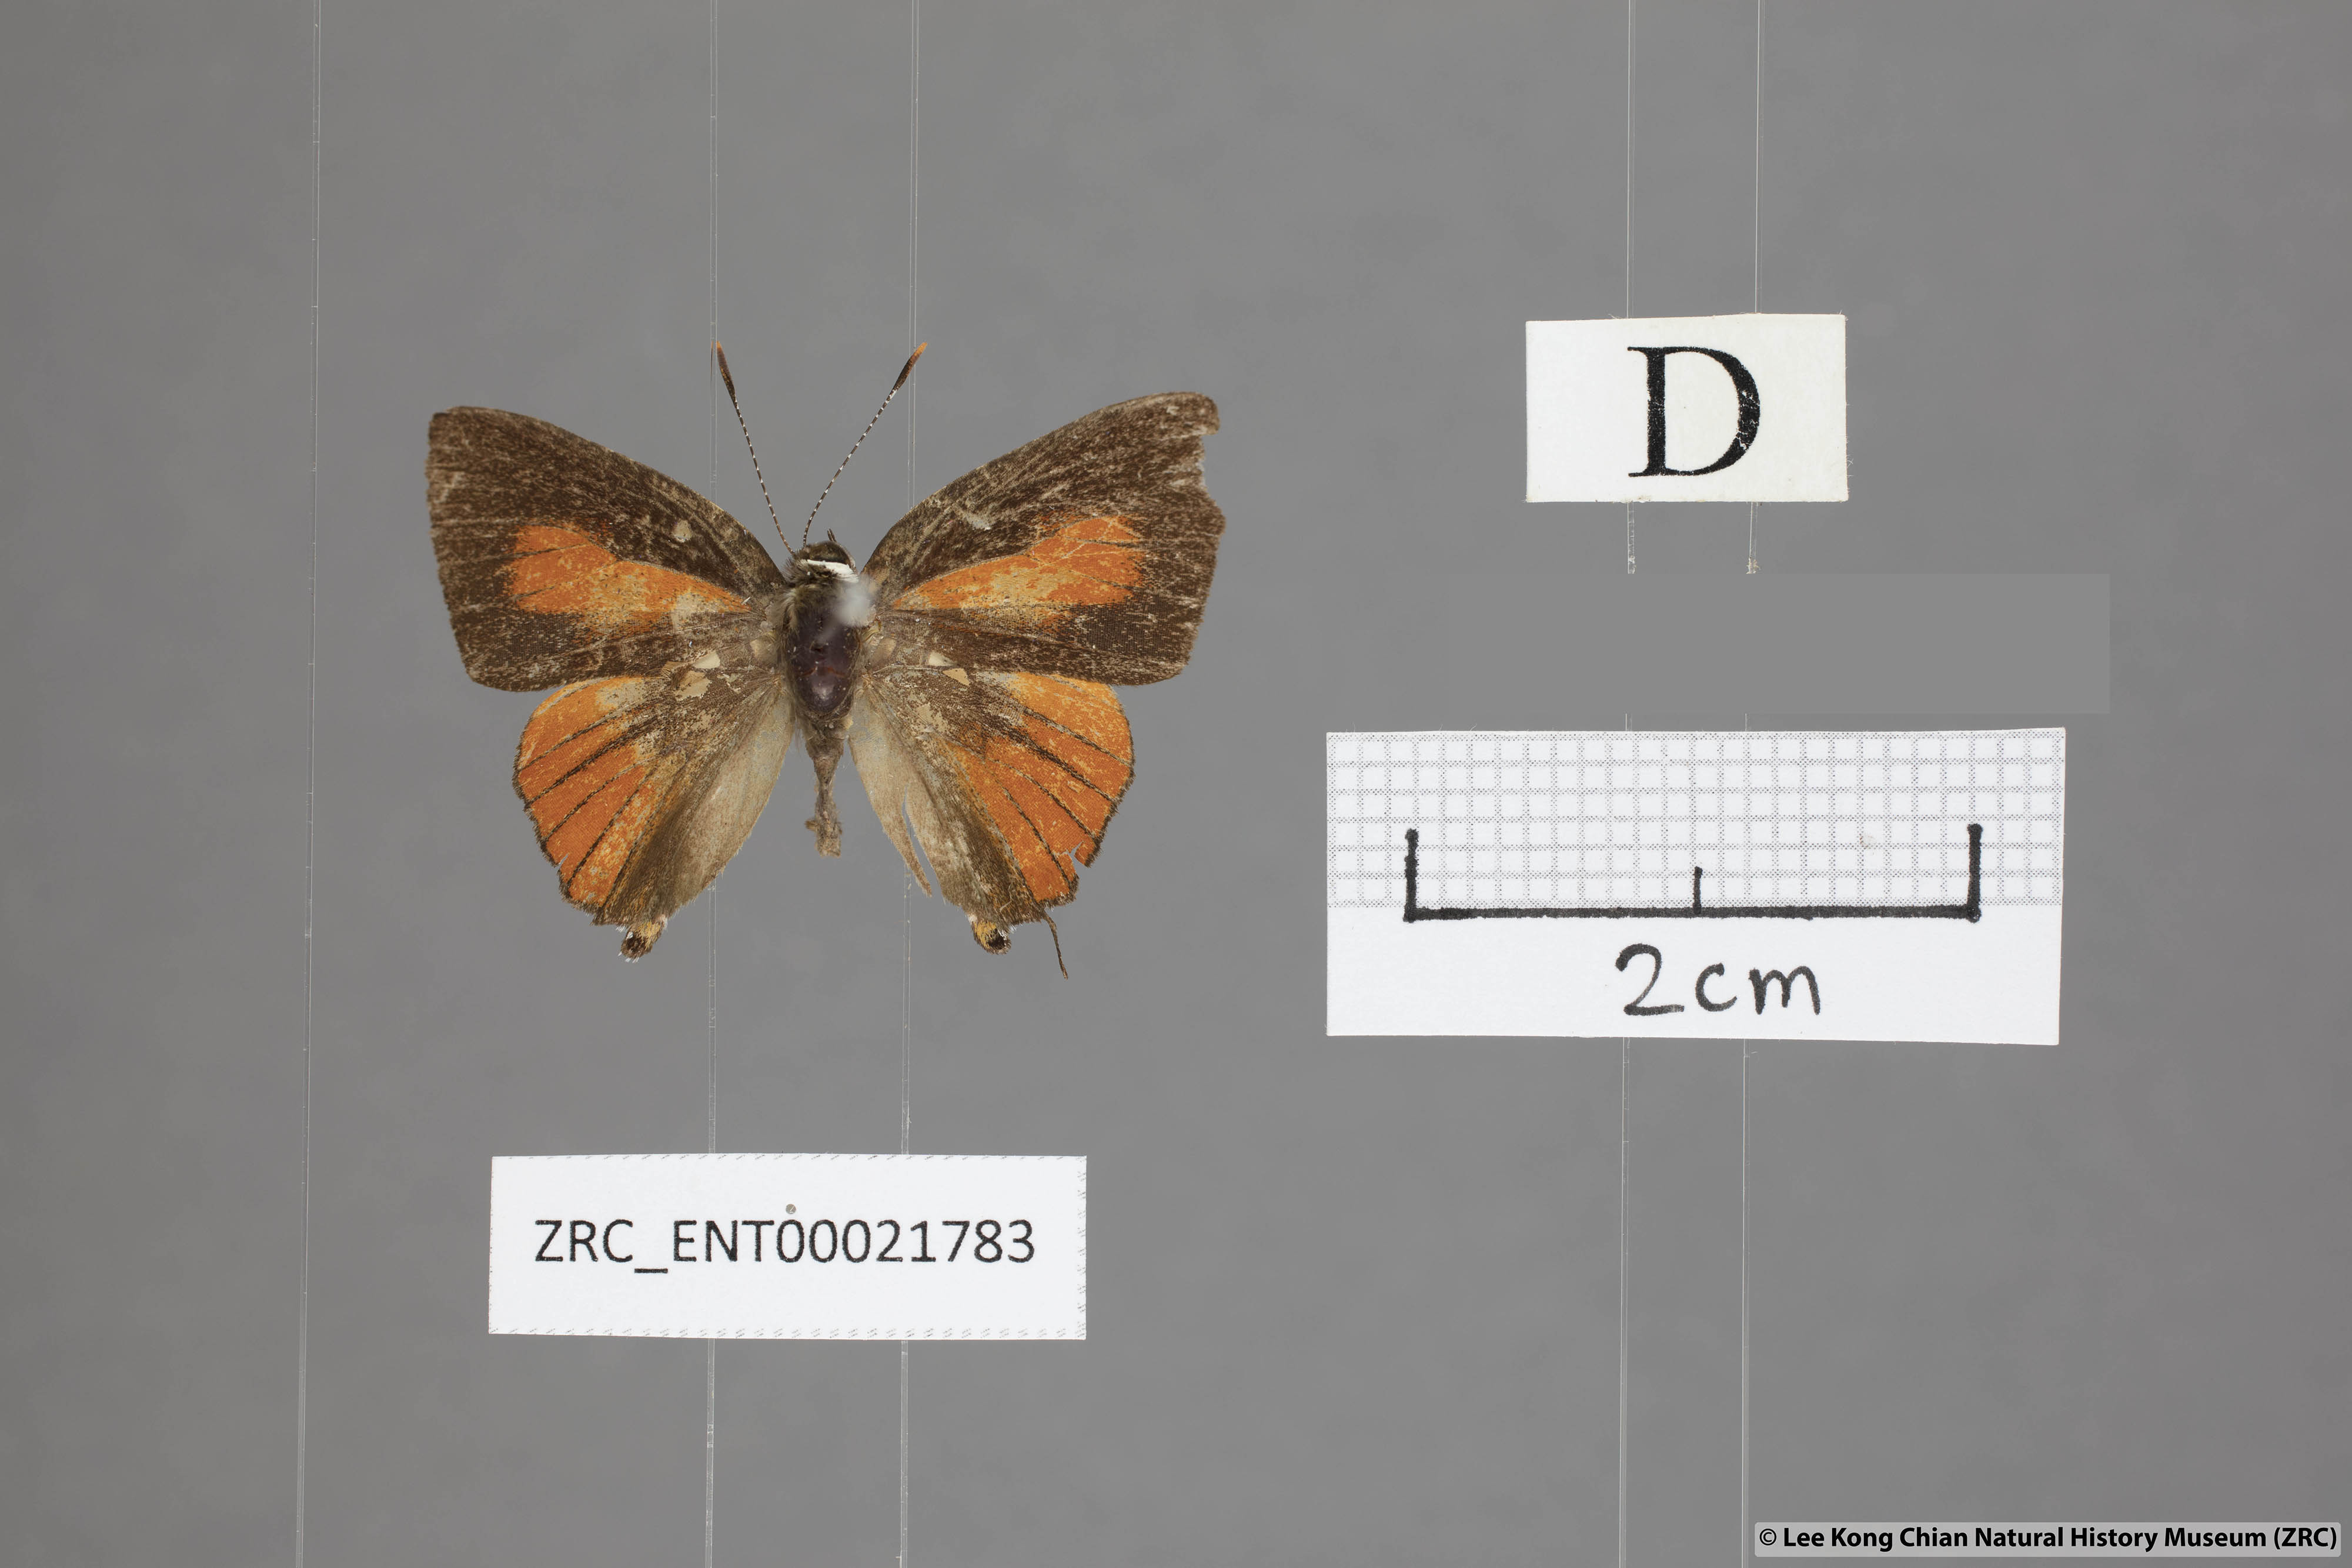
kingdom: Animalia
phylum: Arthropoda
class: Insecta
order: Lepidoptera
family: Lycaenidae
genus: Rapala
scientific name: Rapala damona
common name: Malay red flash
